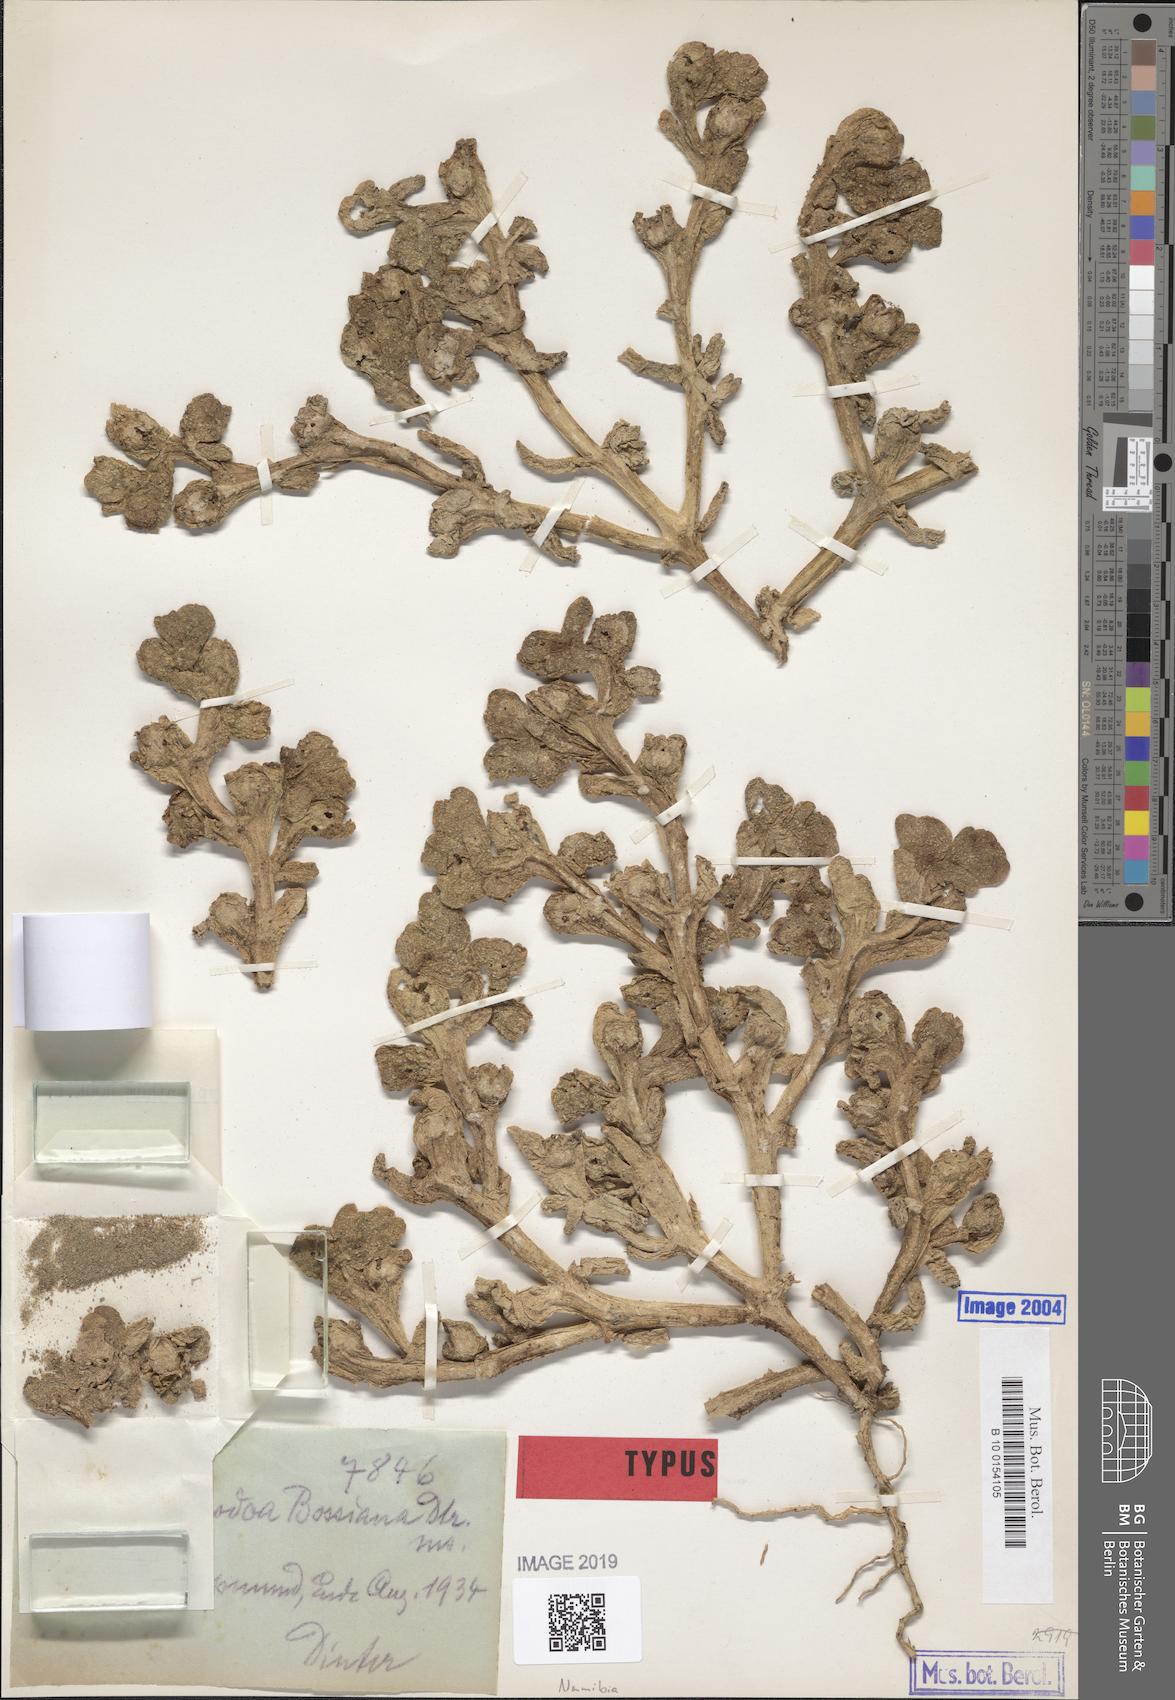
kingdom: Plantae
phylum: Tracheophyta
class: Magnoliopsida
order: Caryophyllales
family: Aizoaceae
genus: Mesembryanthemum
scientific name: Mesembryanthemum cryptanthum
